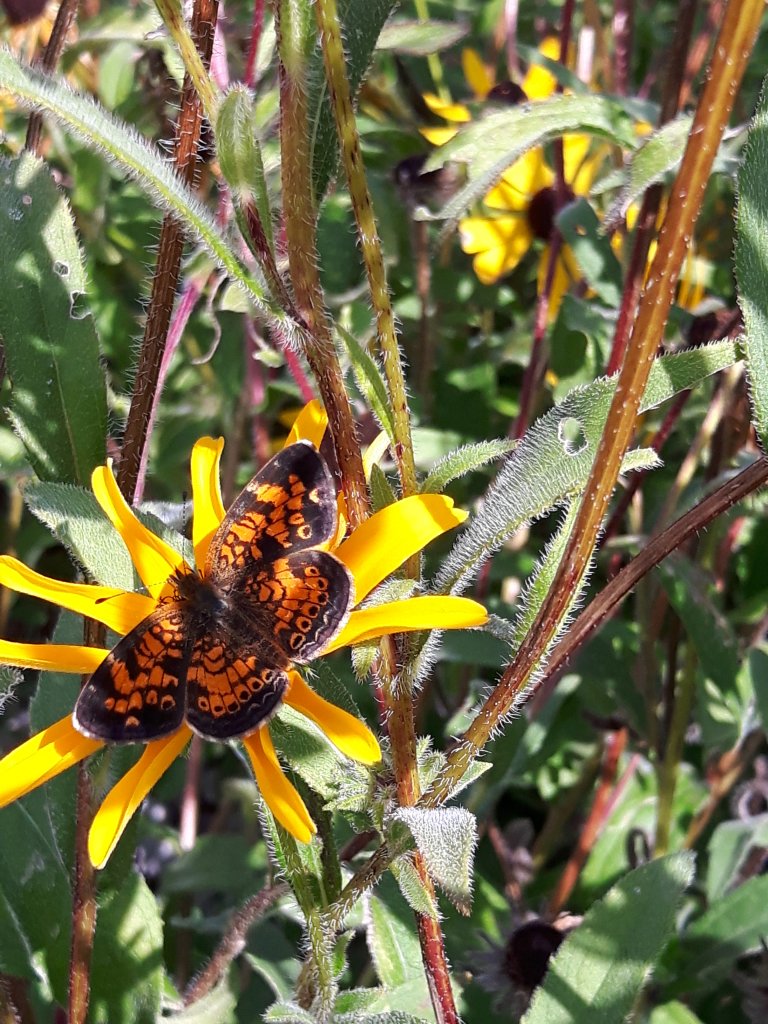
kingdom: Animalia
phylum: Arthropoda
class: Insecta
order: Lepidoptera
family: Nymphalidae
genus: Phyciodes
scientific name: Phyciodes tharos
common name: Pearl Crescent
